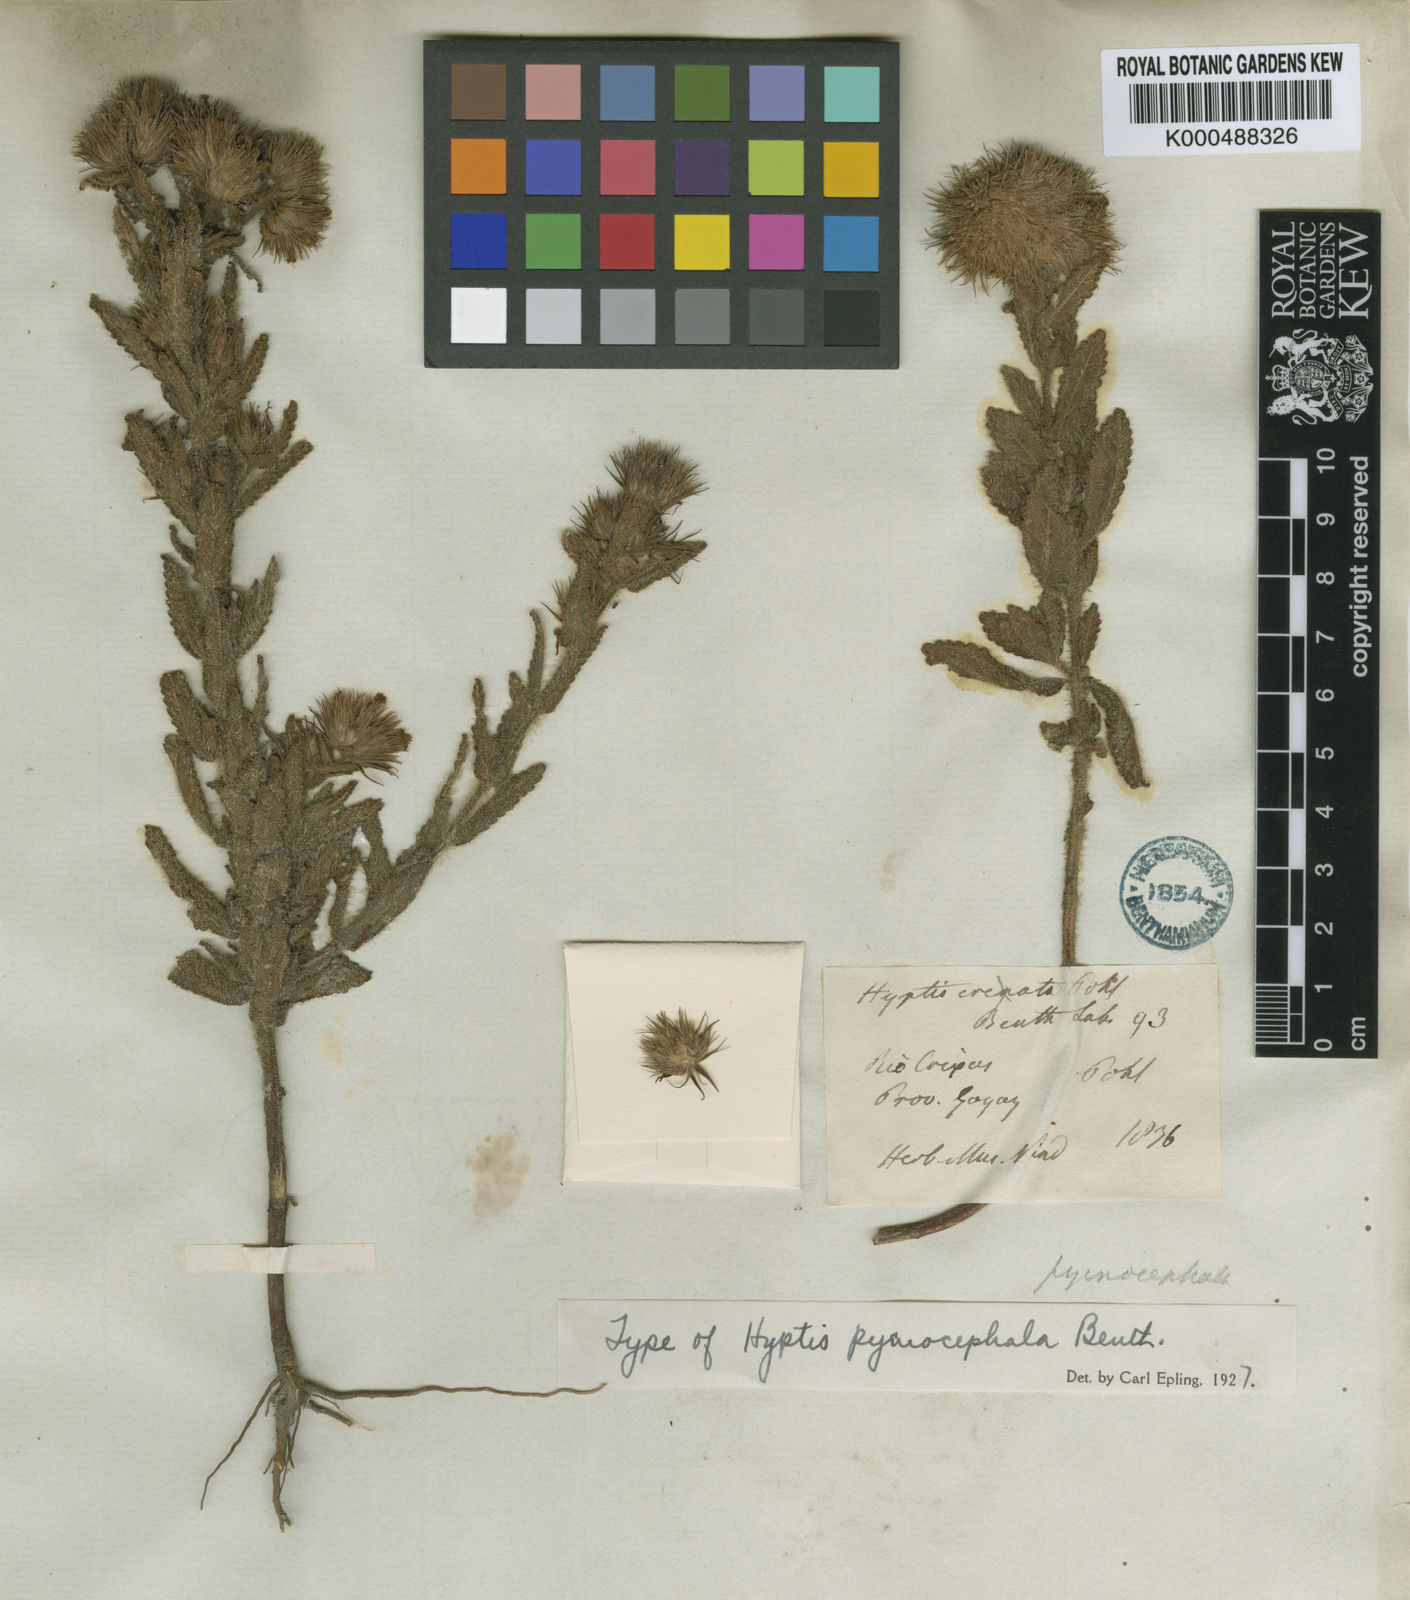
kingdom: Plantae
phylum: Tracheophyta
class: Magnoliopsida
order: Lamiales
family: Lamiaceae
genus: Hyptis
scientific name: Hyptis pycnocephala
